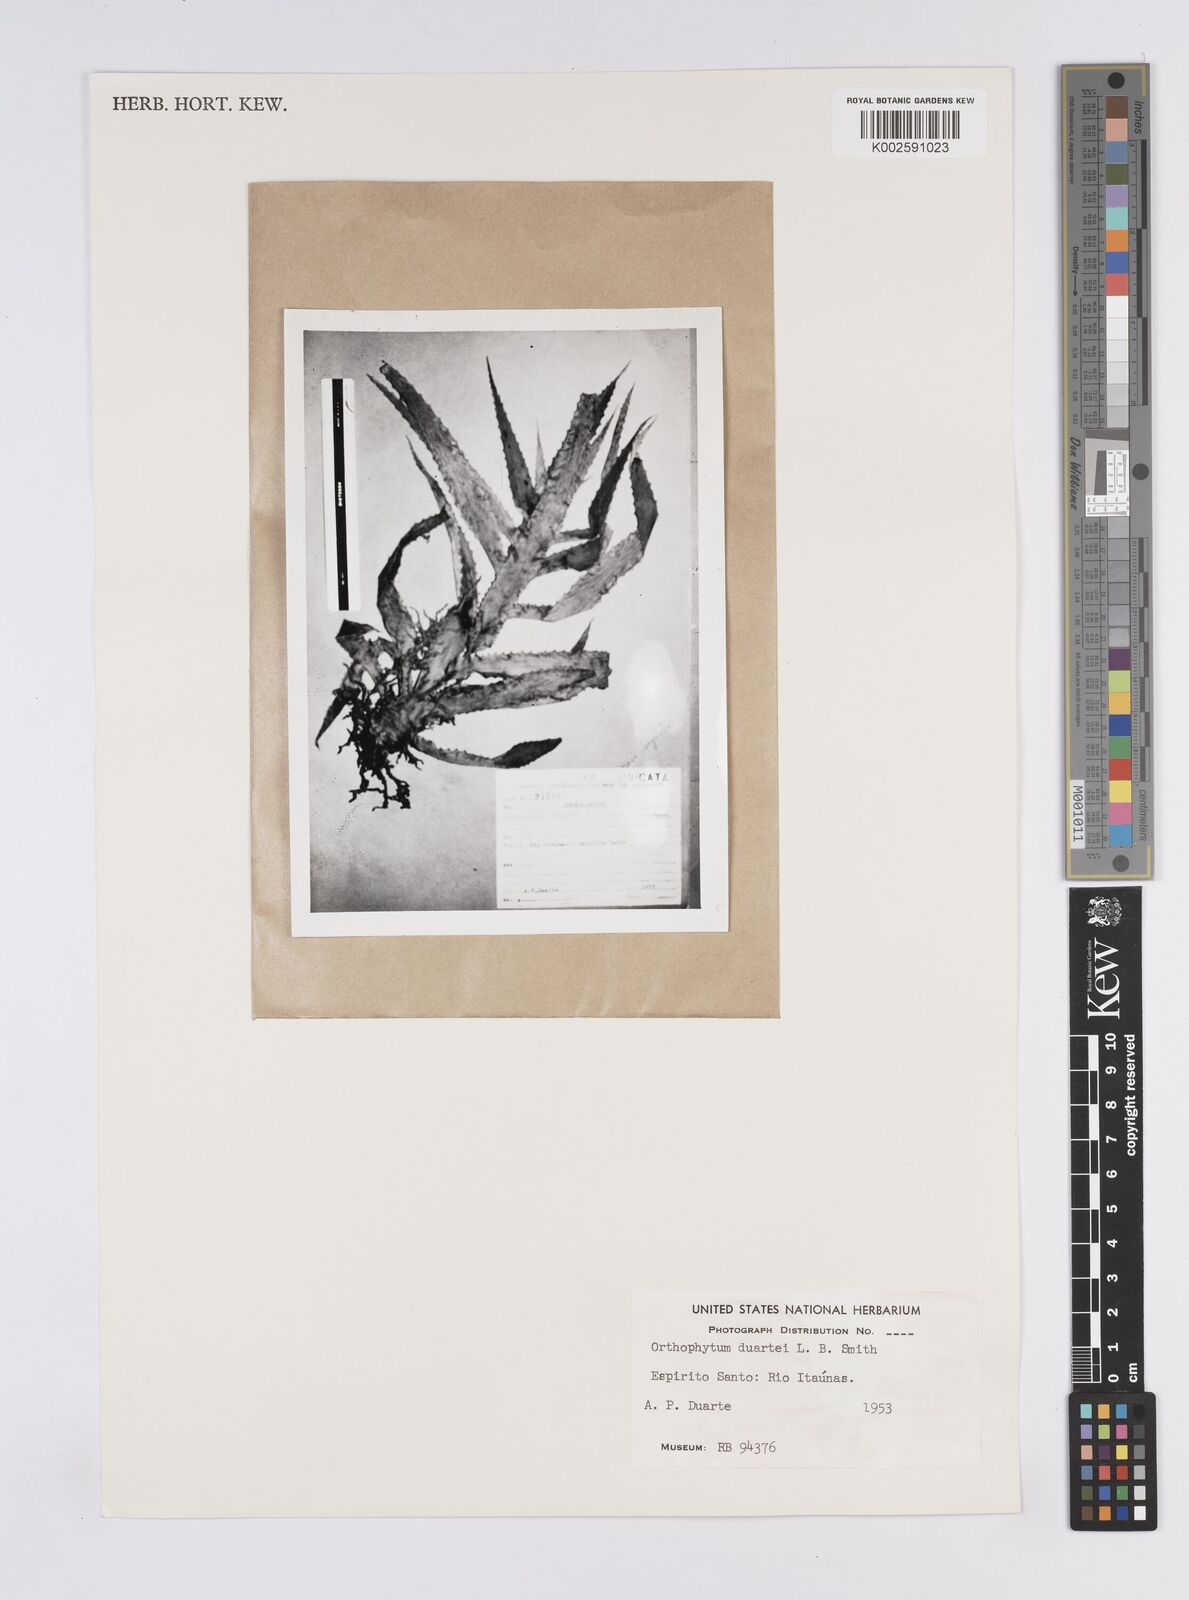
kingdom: Plantae
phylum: Tracheophyta
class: Liliopsida
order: Poales
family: Bromeliaceae
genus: Orthophytum
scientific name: Orthophytum duartei
